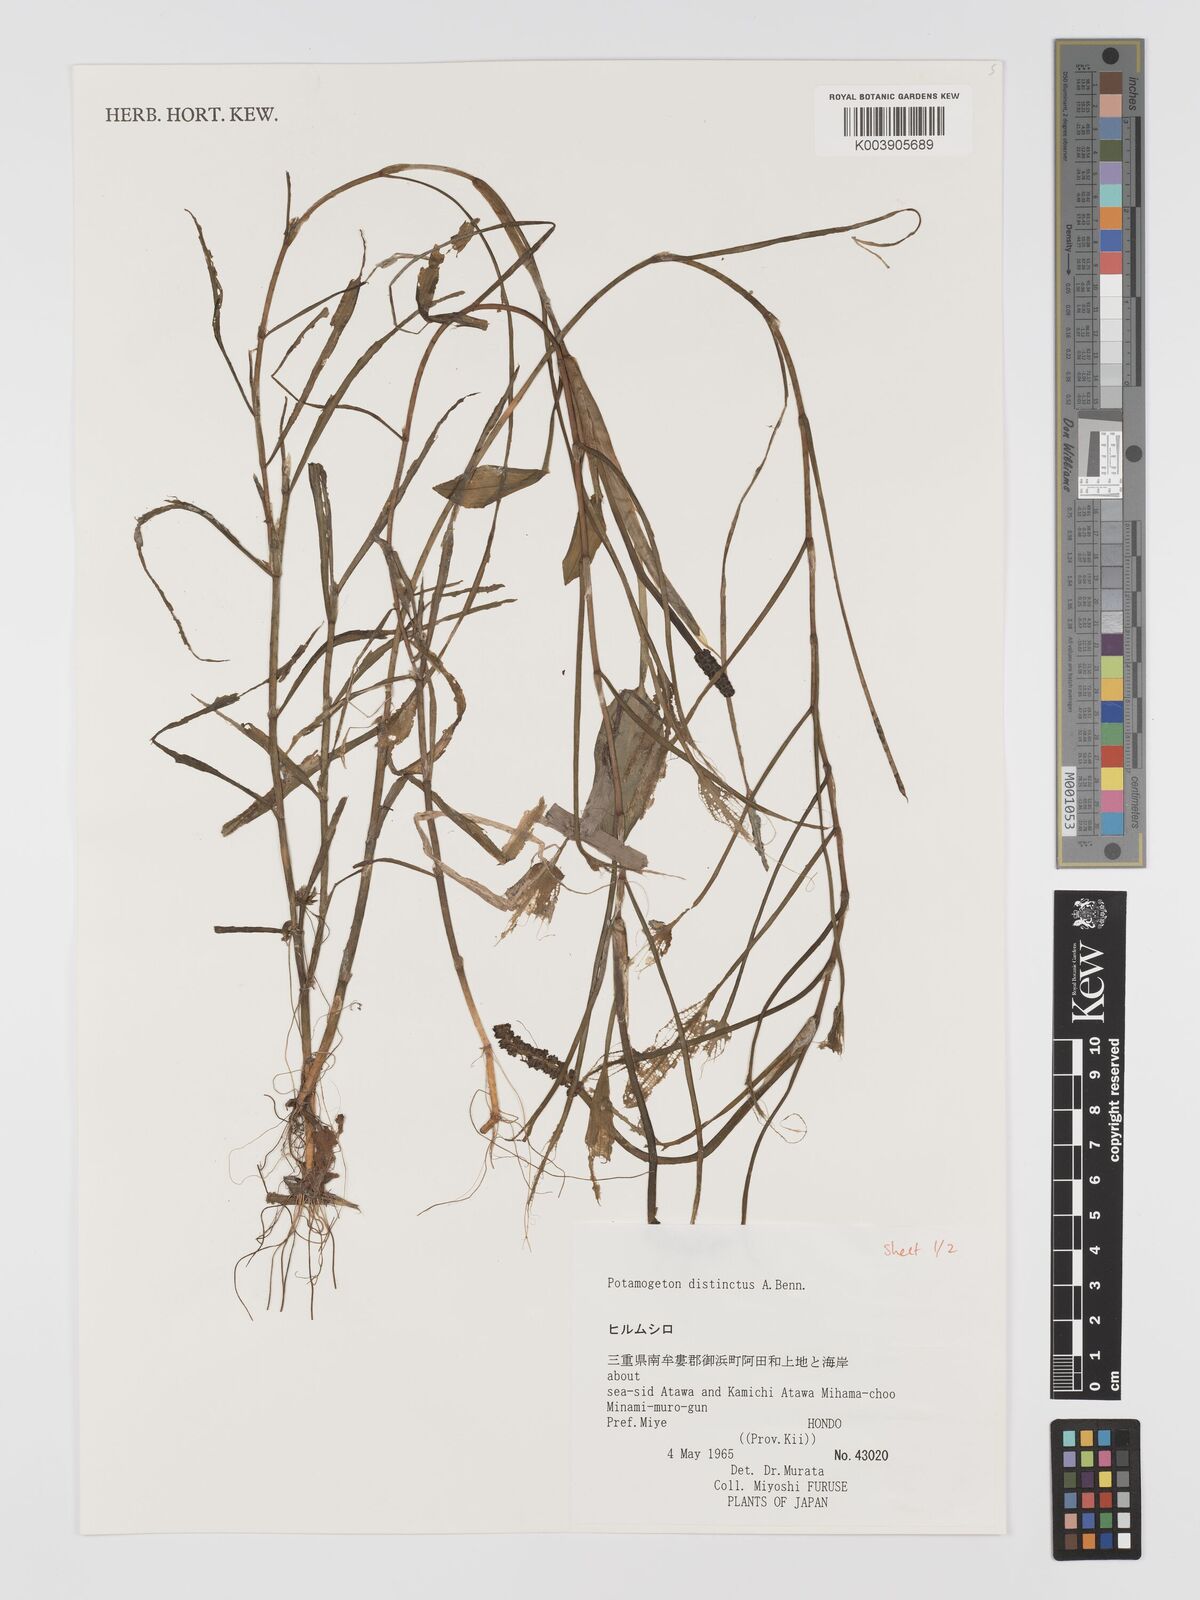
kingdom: Plantae
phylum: Tracheophyta
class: Liliopsida
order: Alismatales
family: Potamogetonaceae
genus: Potamogeton
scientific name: Potamogeton distinctus
